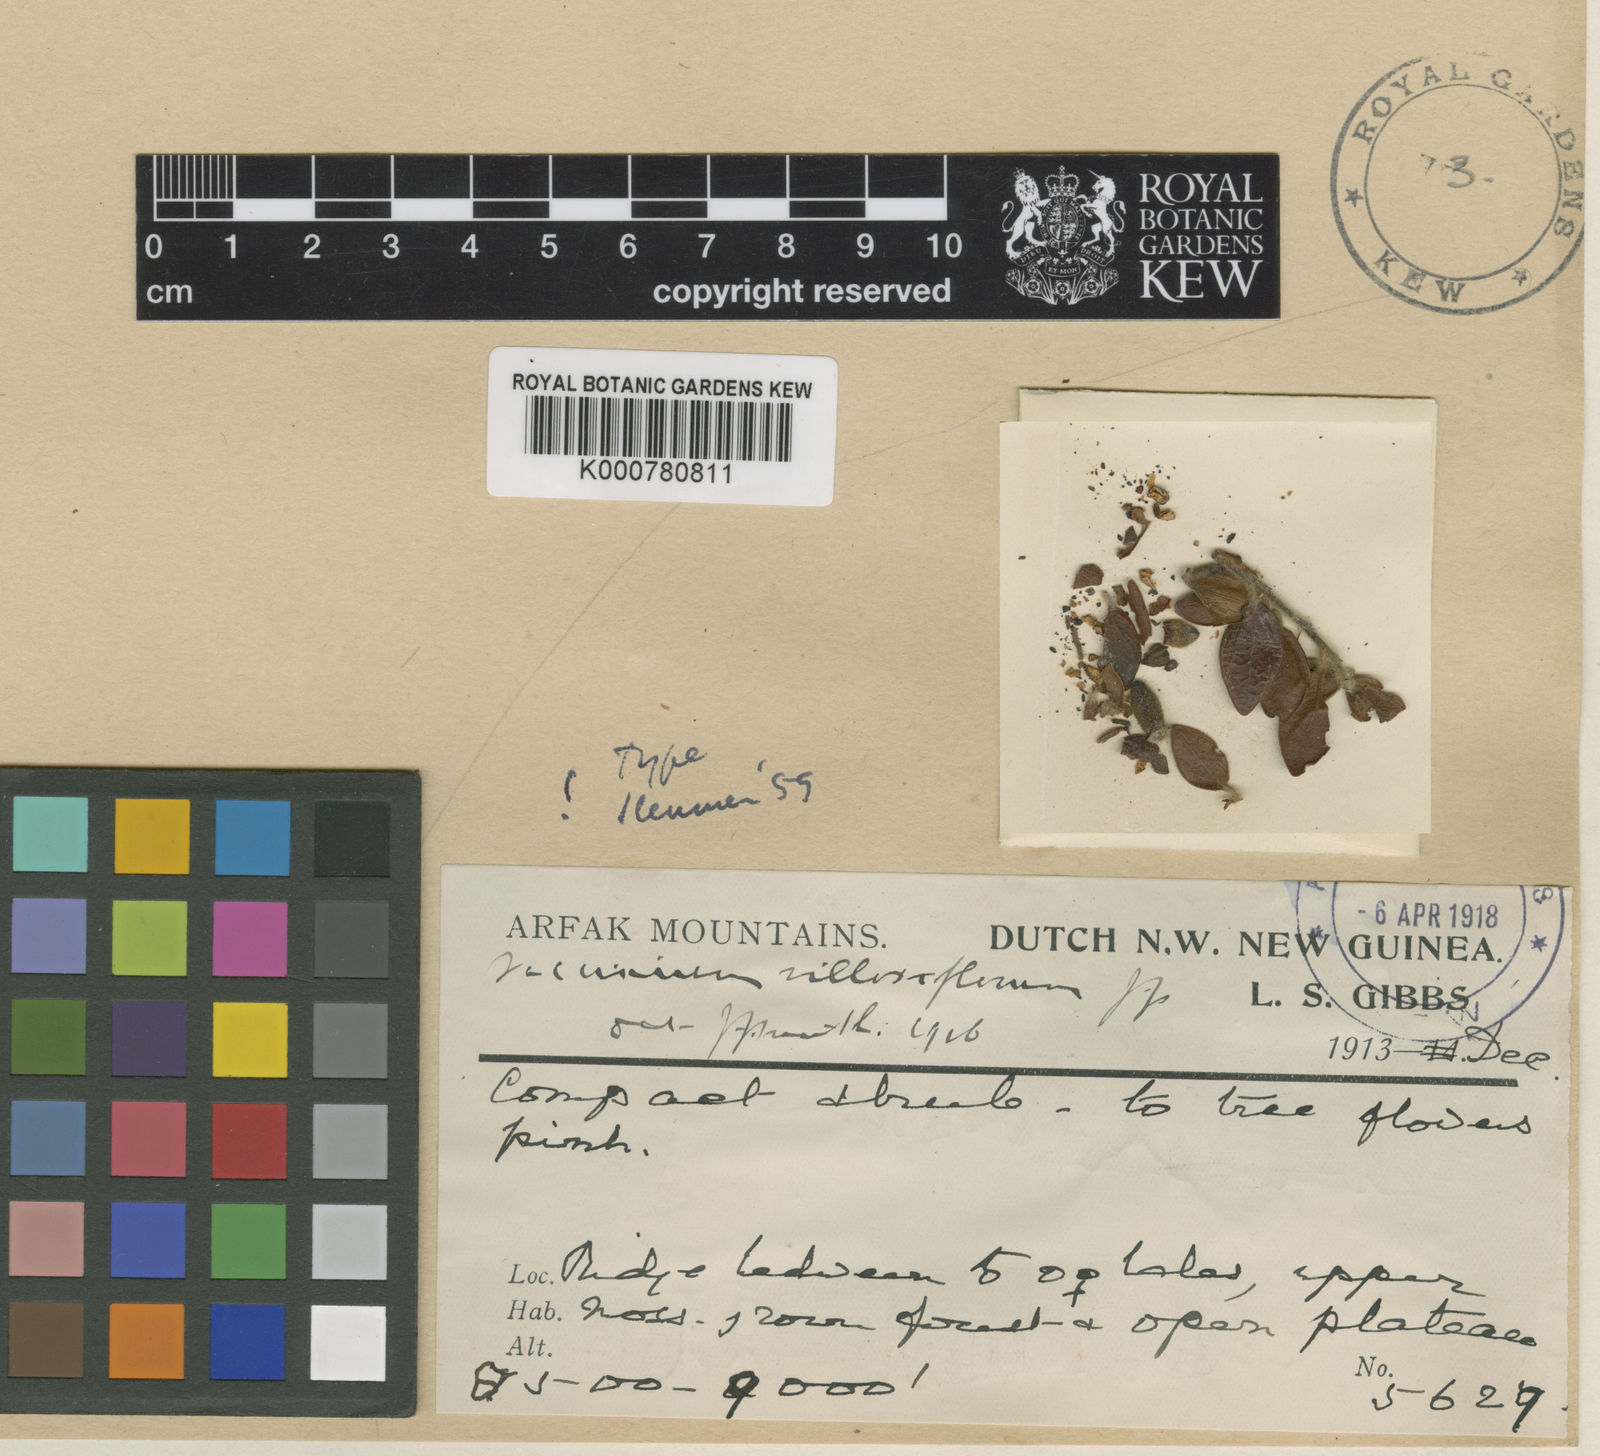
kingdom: Plantae
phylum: Tracheophyta
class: Magnoliopsida
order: Ericales
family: Ericaceae
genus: Vaccinium
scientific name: Vaccinium villosiflorum
